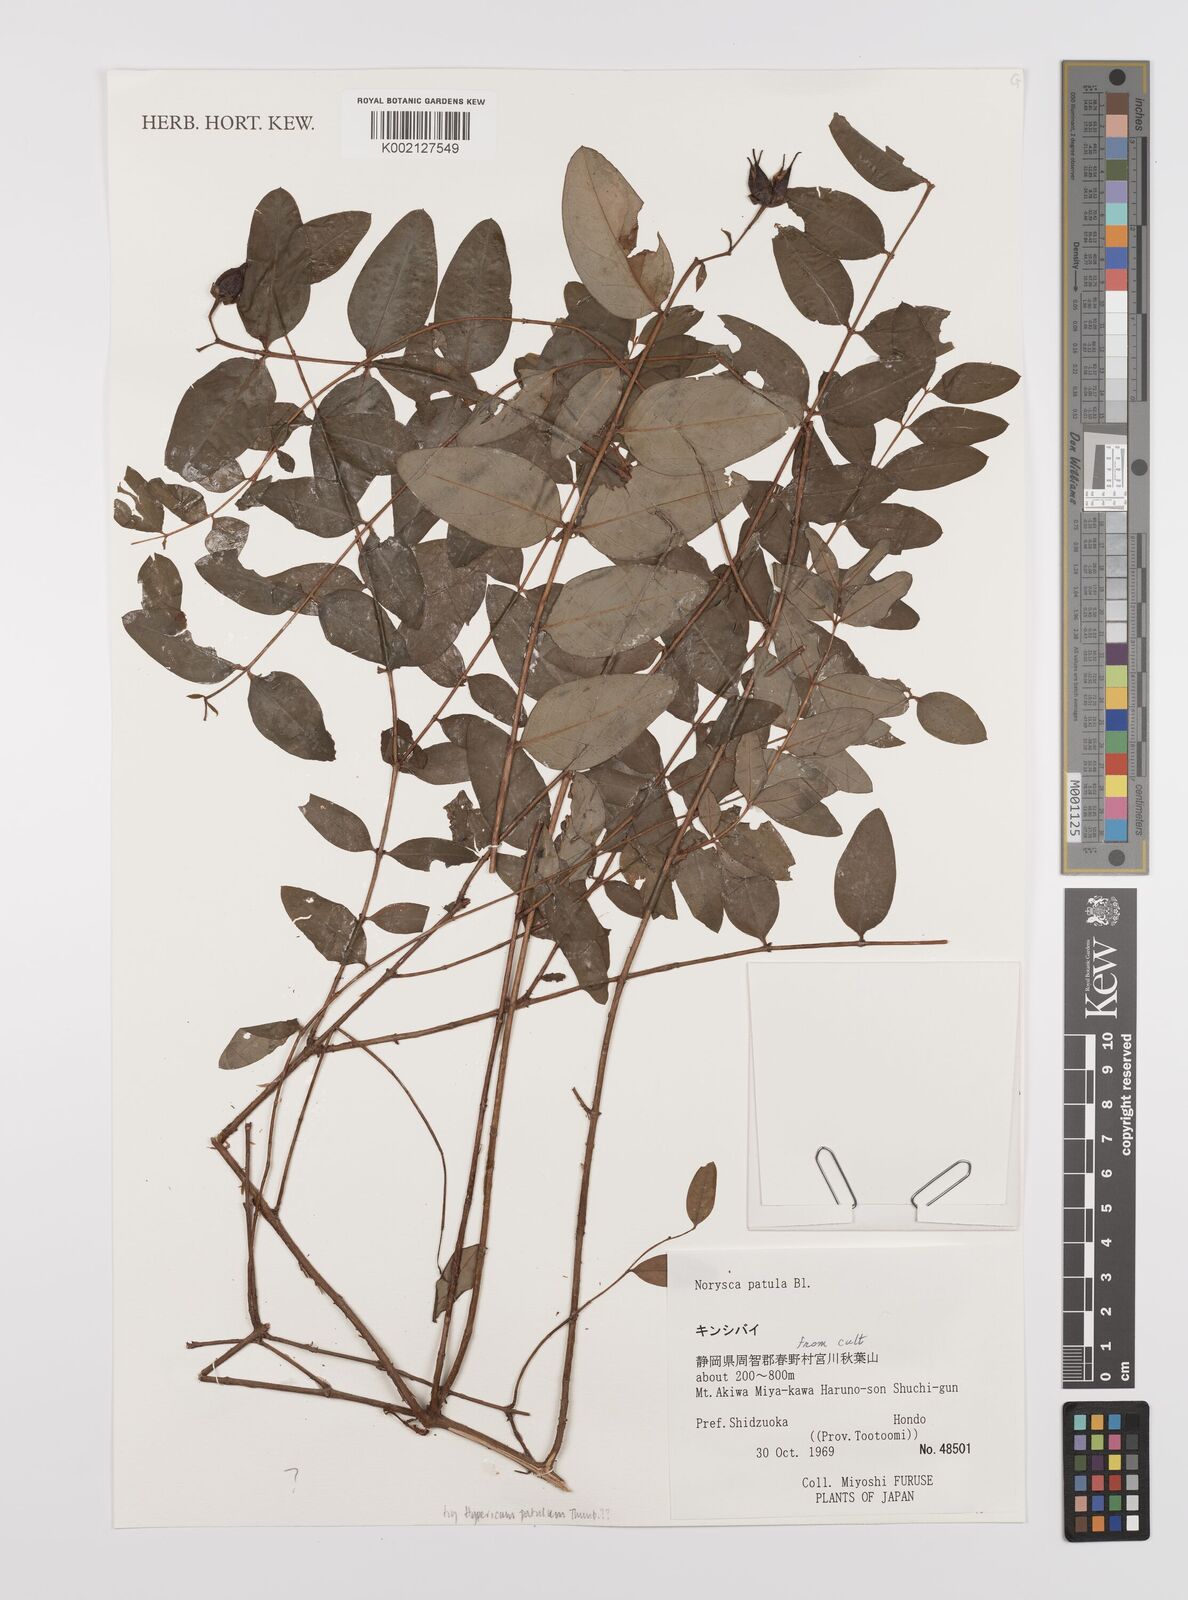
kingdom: Plantae
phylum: Tracheophyta
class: Magnoliopsida
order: Malpighiales
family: Hypericaceae
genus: Hypericum
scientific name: Hypericum patulum
